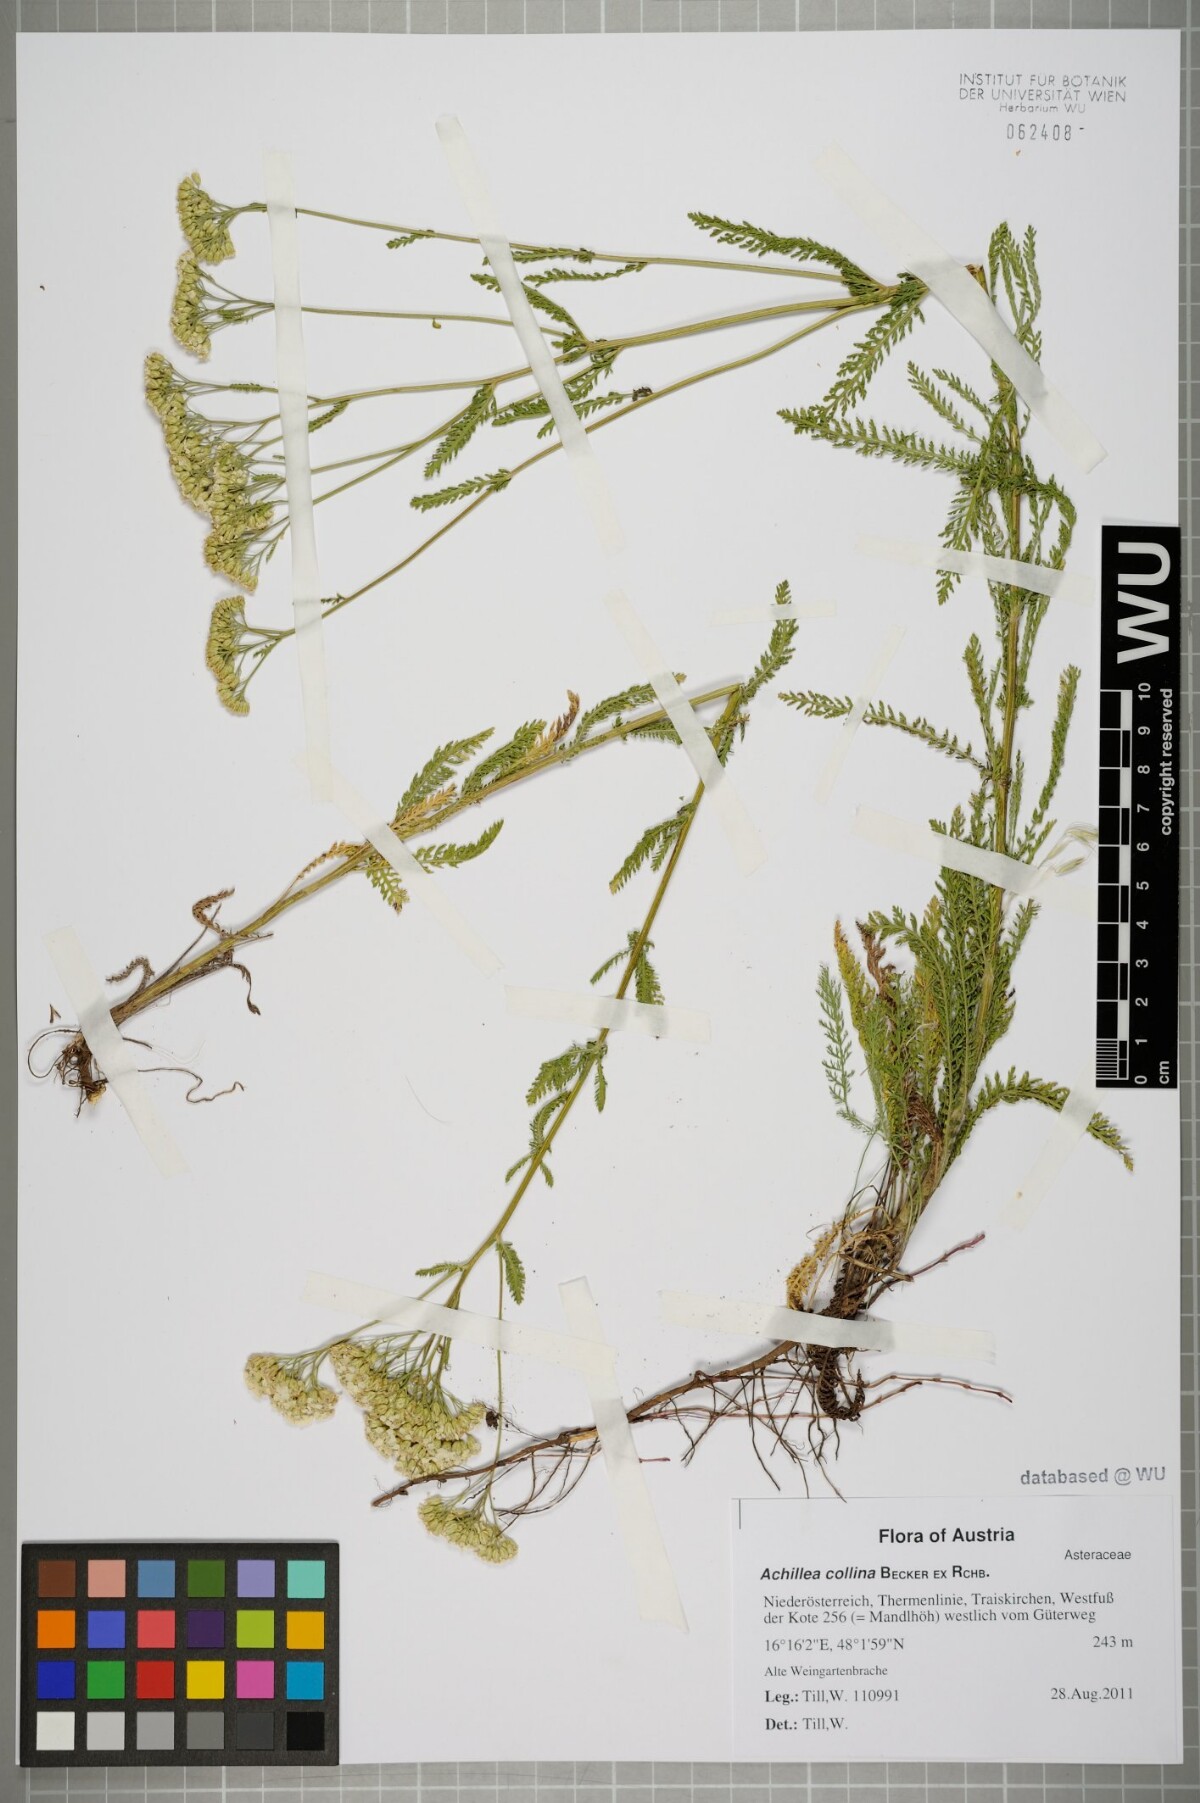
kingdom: Plantae
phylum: Tracheophyta
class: Magnoliopsida
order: Asterales
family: Asteraceae
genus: Achillea
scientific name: Achillea collina
